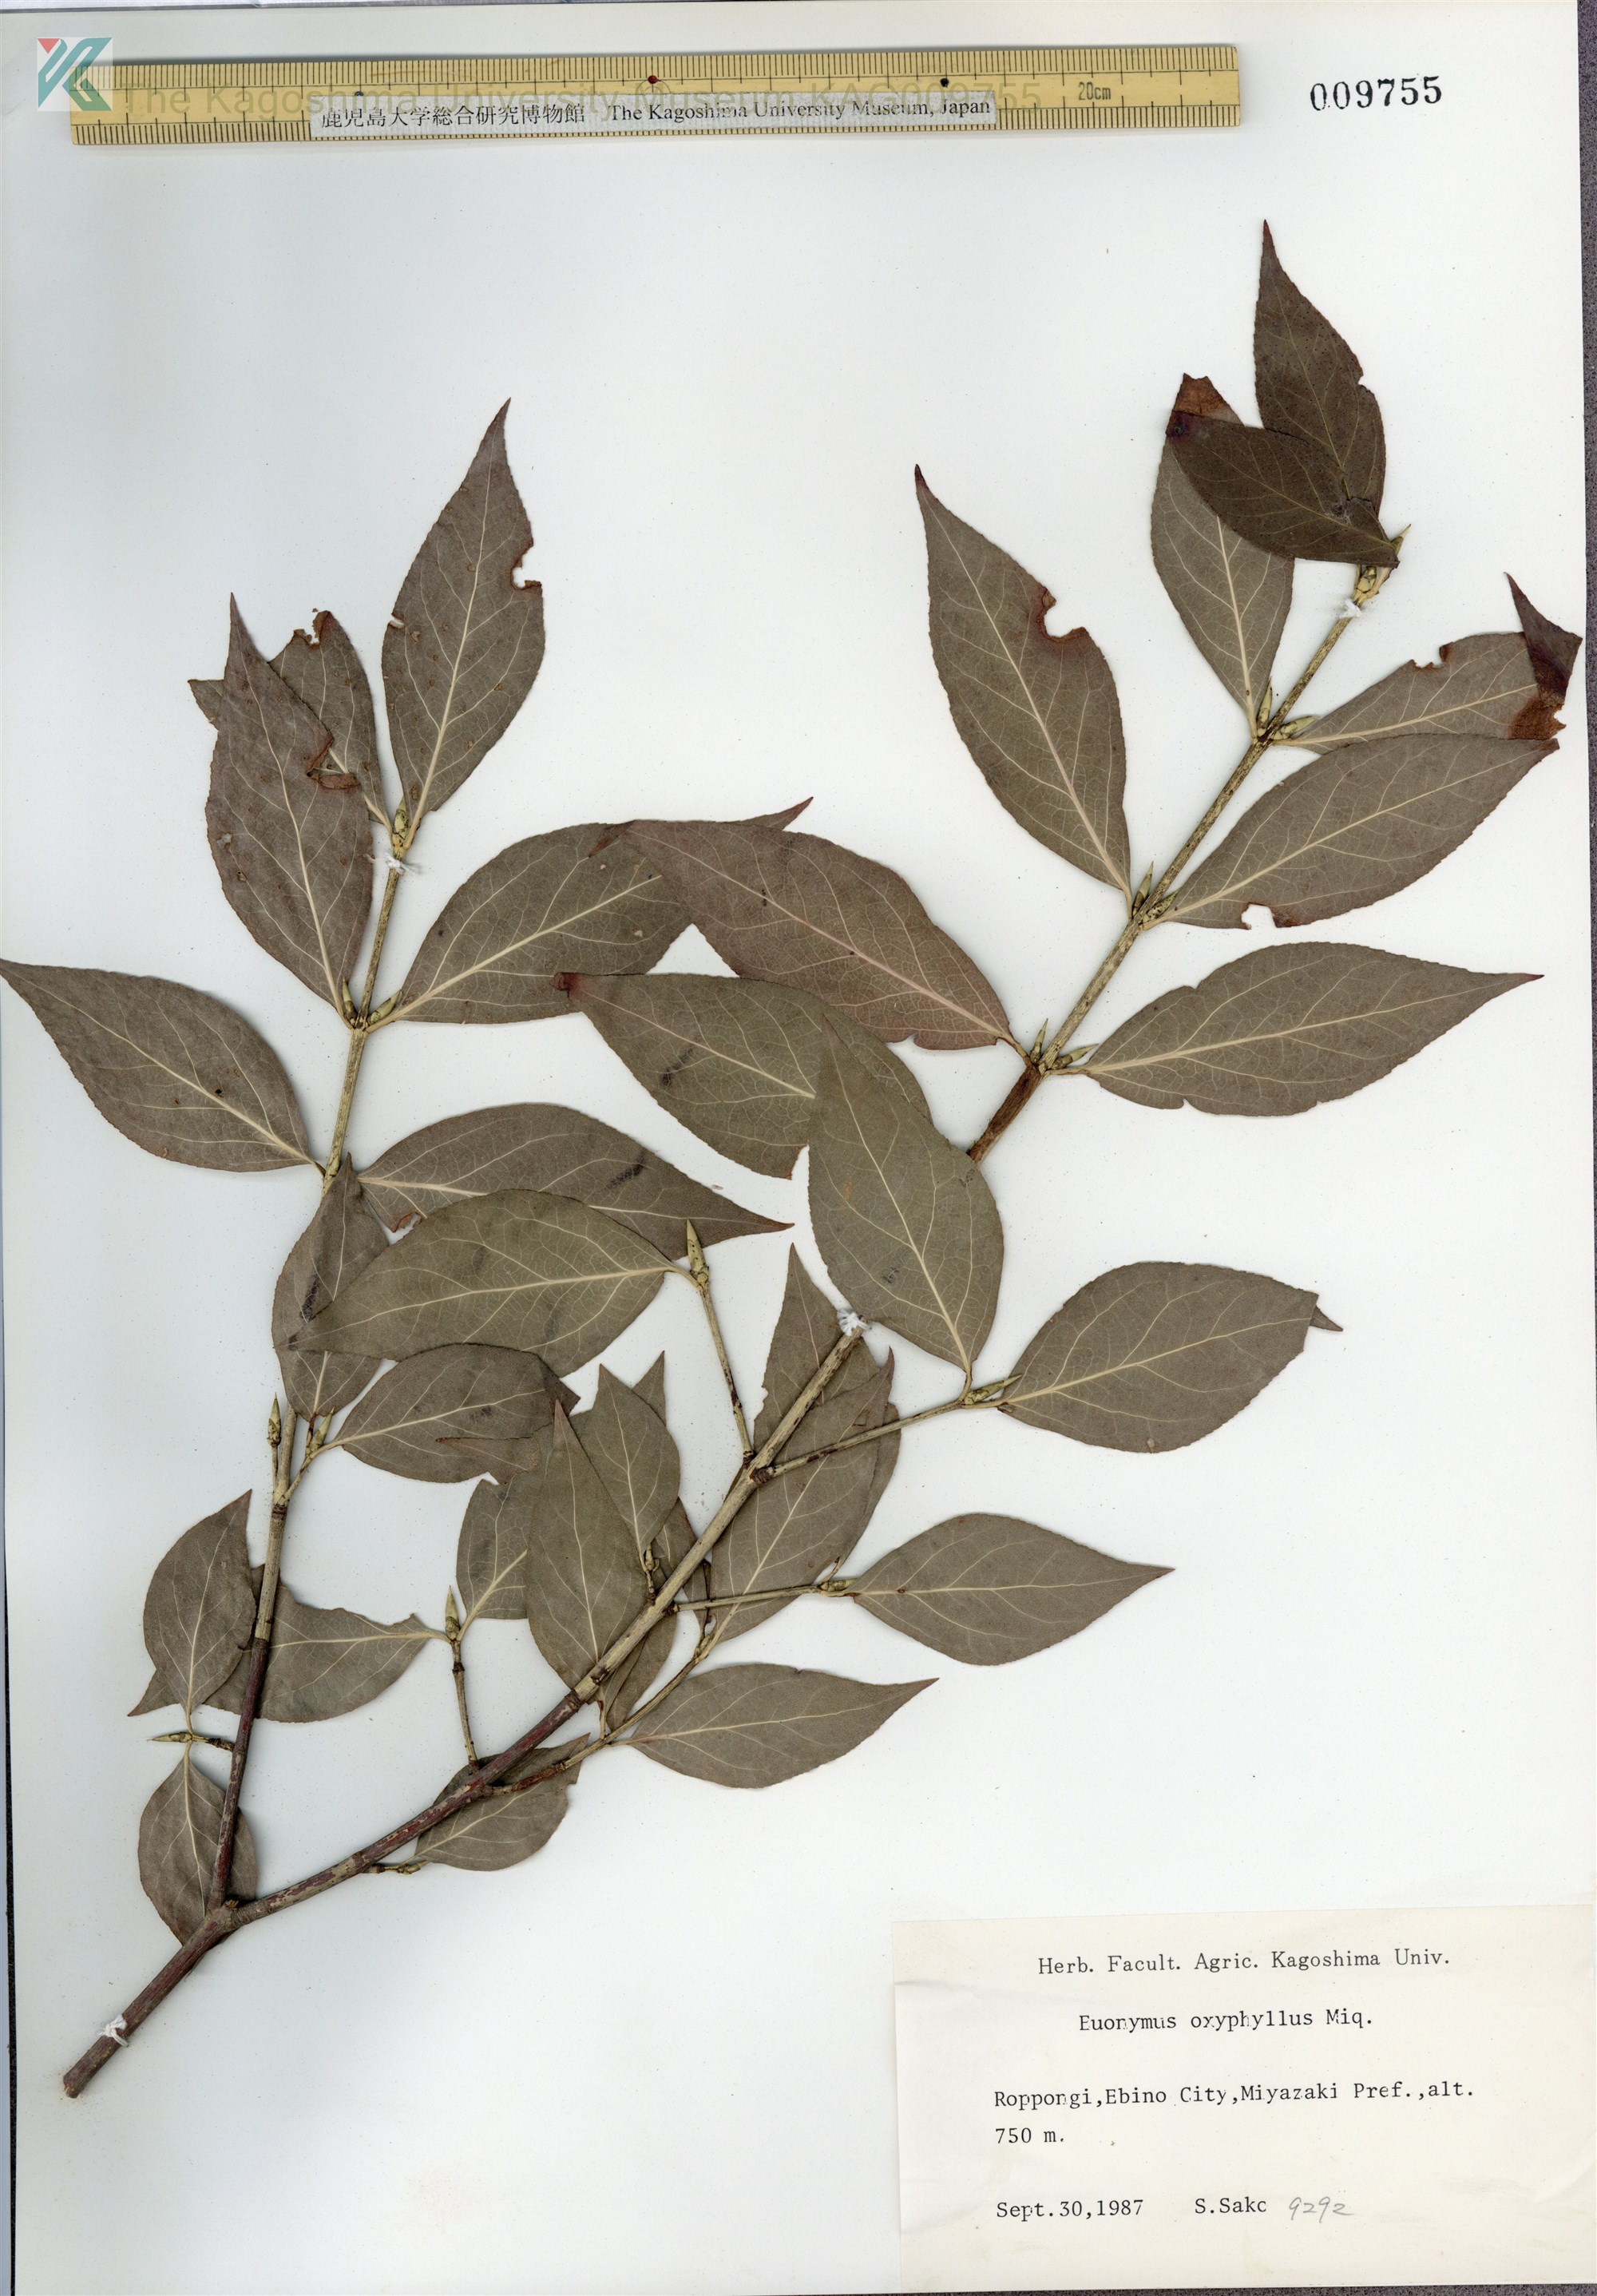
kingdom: Plantae
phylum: Tracheophyta
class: Magnoliopsida
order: Celastrales
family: Celastraceae
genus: Euonymus
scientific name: Euonymus oxyphyllus
